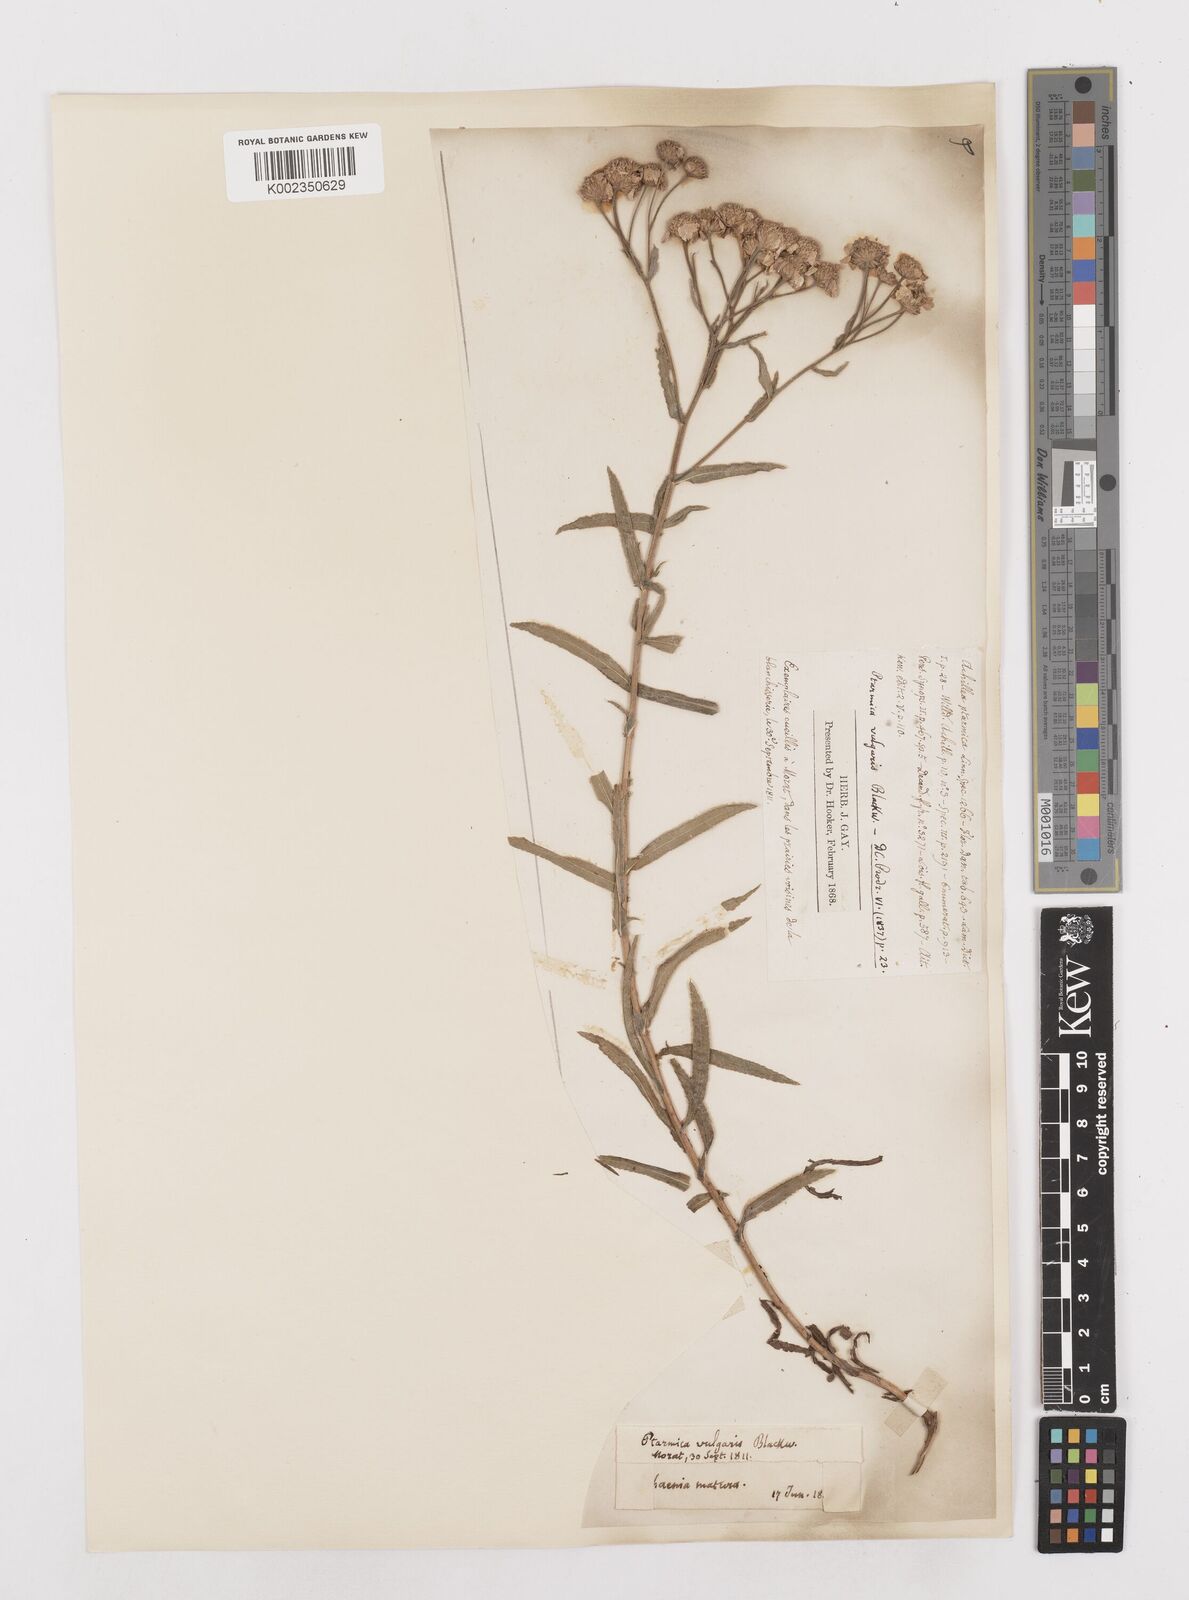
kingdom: Plantae
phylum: Tracheophyta
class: Magnoliopsida
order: Asterales
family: Asteraceae
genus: Achillea
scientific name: Achillea ptarmica
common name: Sneezeweed
